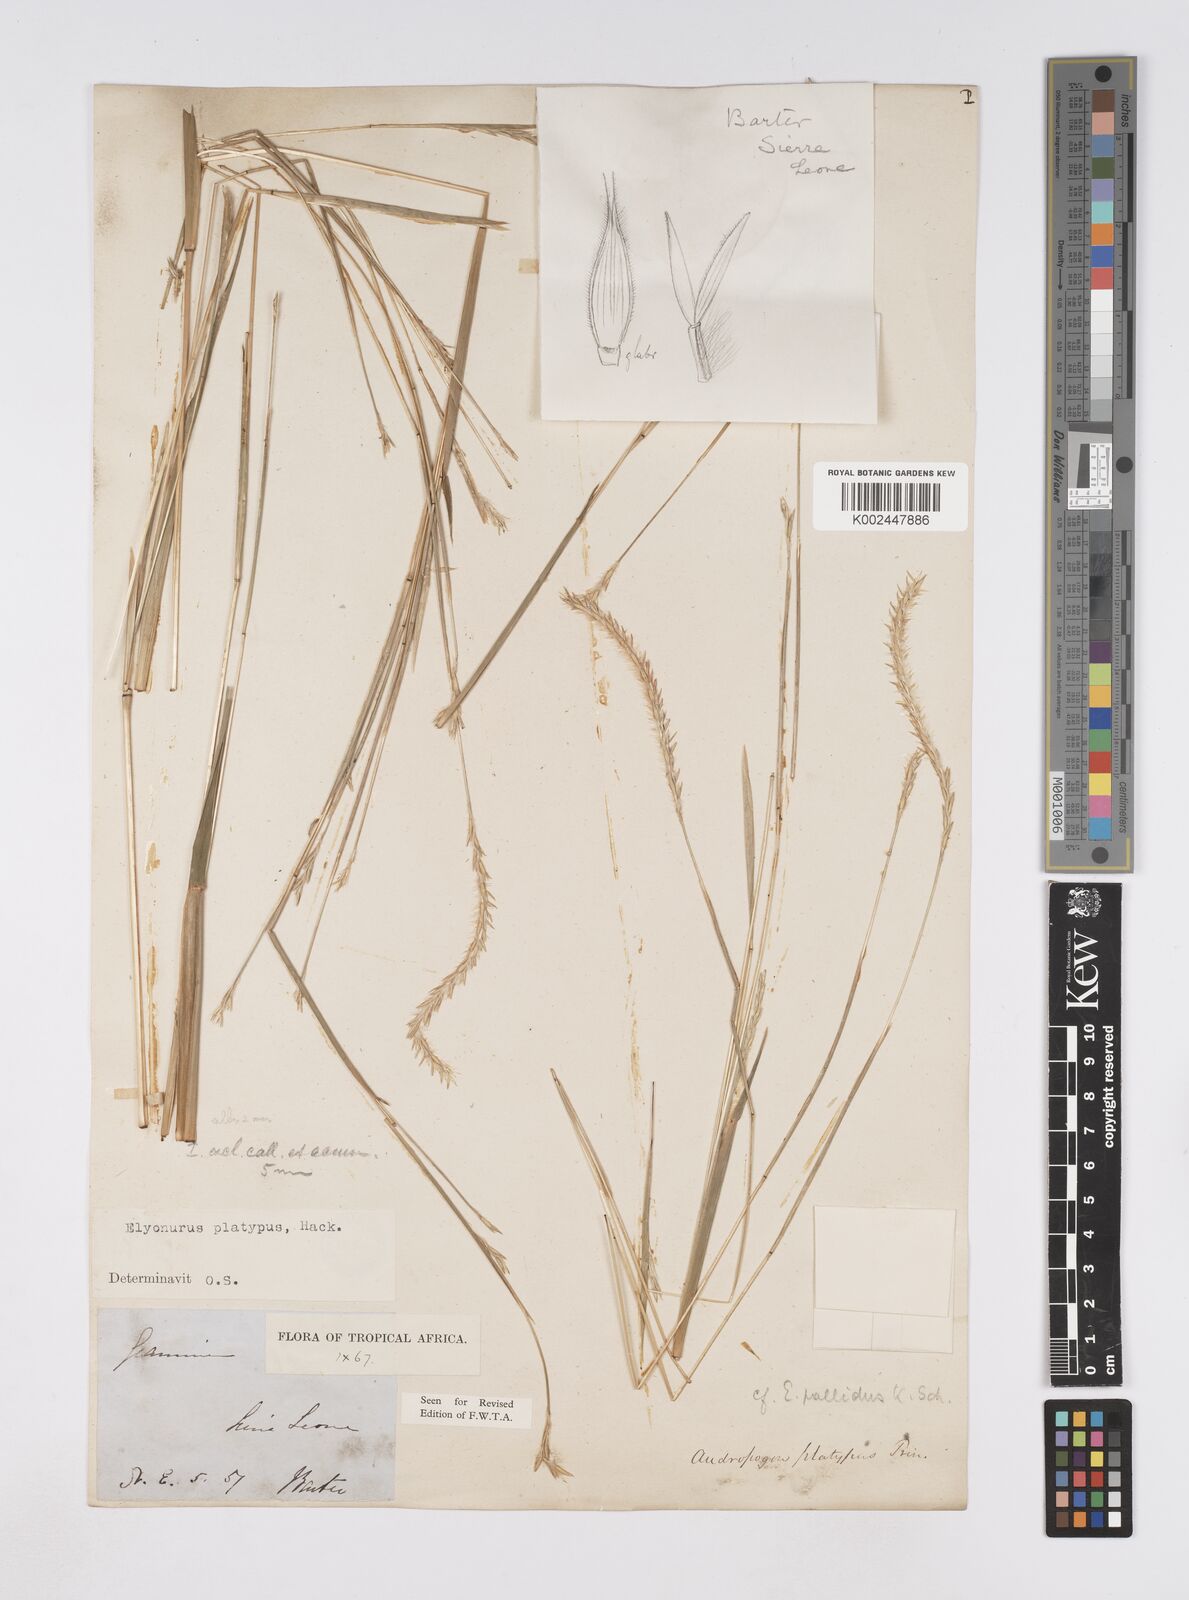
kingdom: Plantae
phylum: Tracheophyta
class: Liliopsida
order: Poales
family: Poaceae
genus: Elionurus
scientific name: Elionurus platypus
